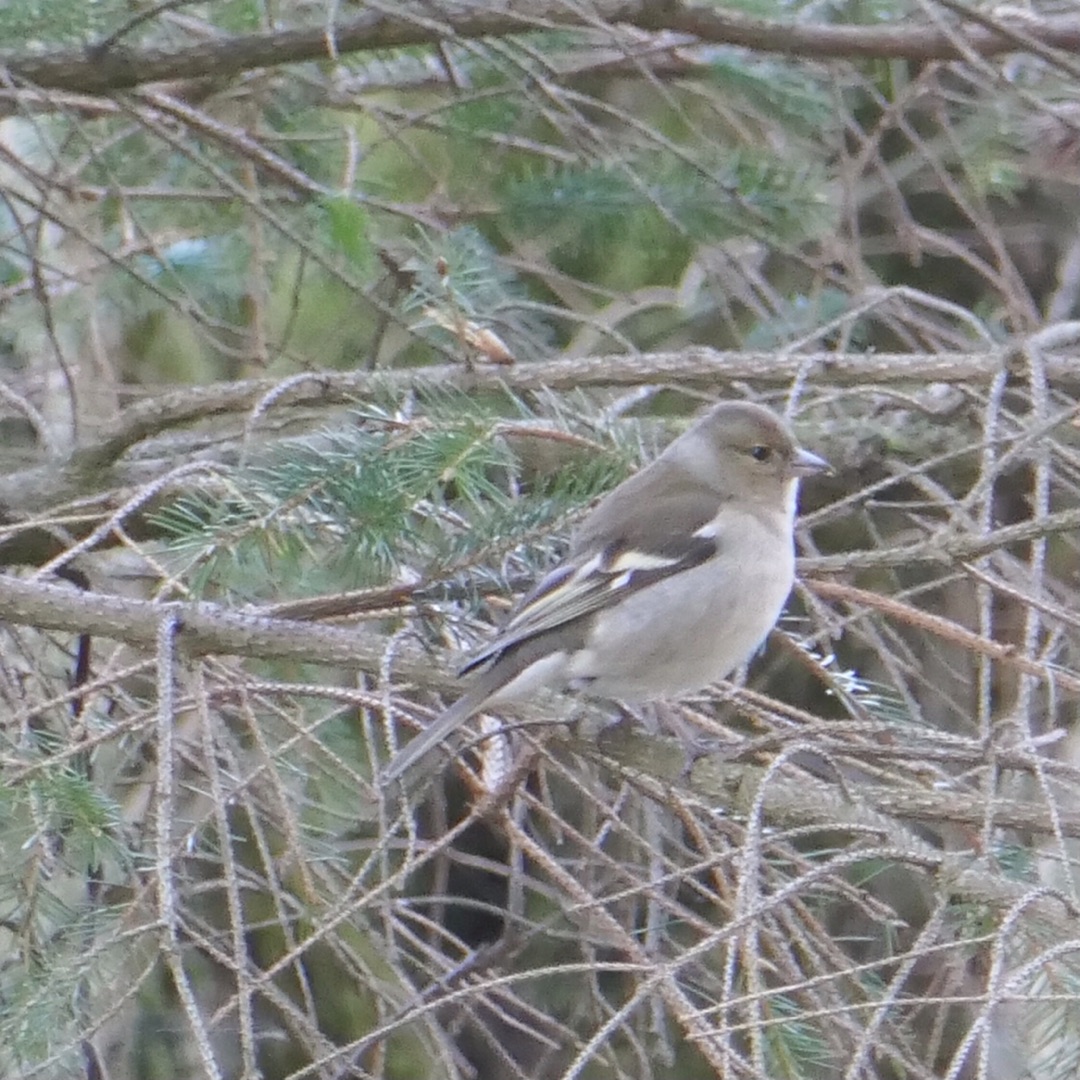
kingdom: Animalia
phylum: Chordata
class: Aves
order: Passeriformes
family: Fringillidae
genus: Fringilla
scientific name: Fringilla coelebs
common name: Bogfinke
